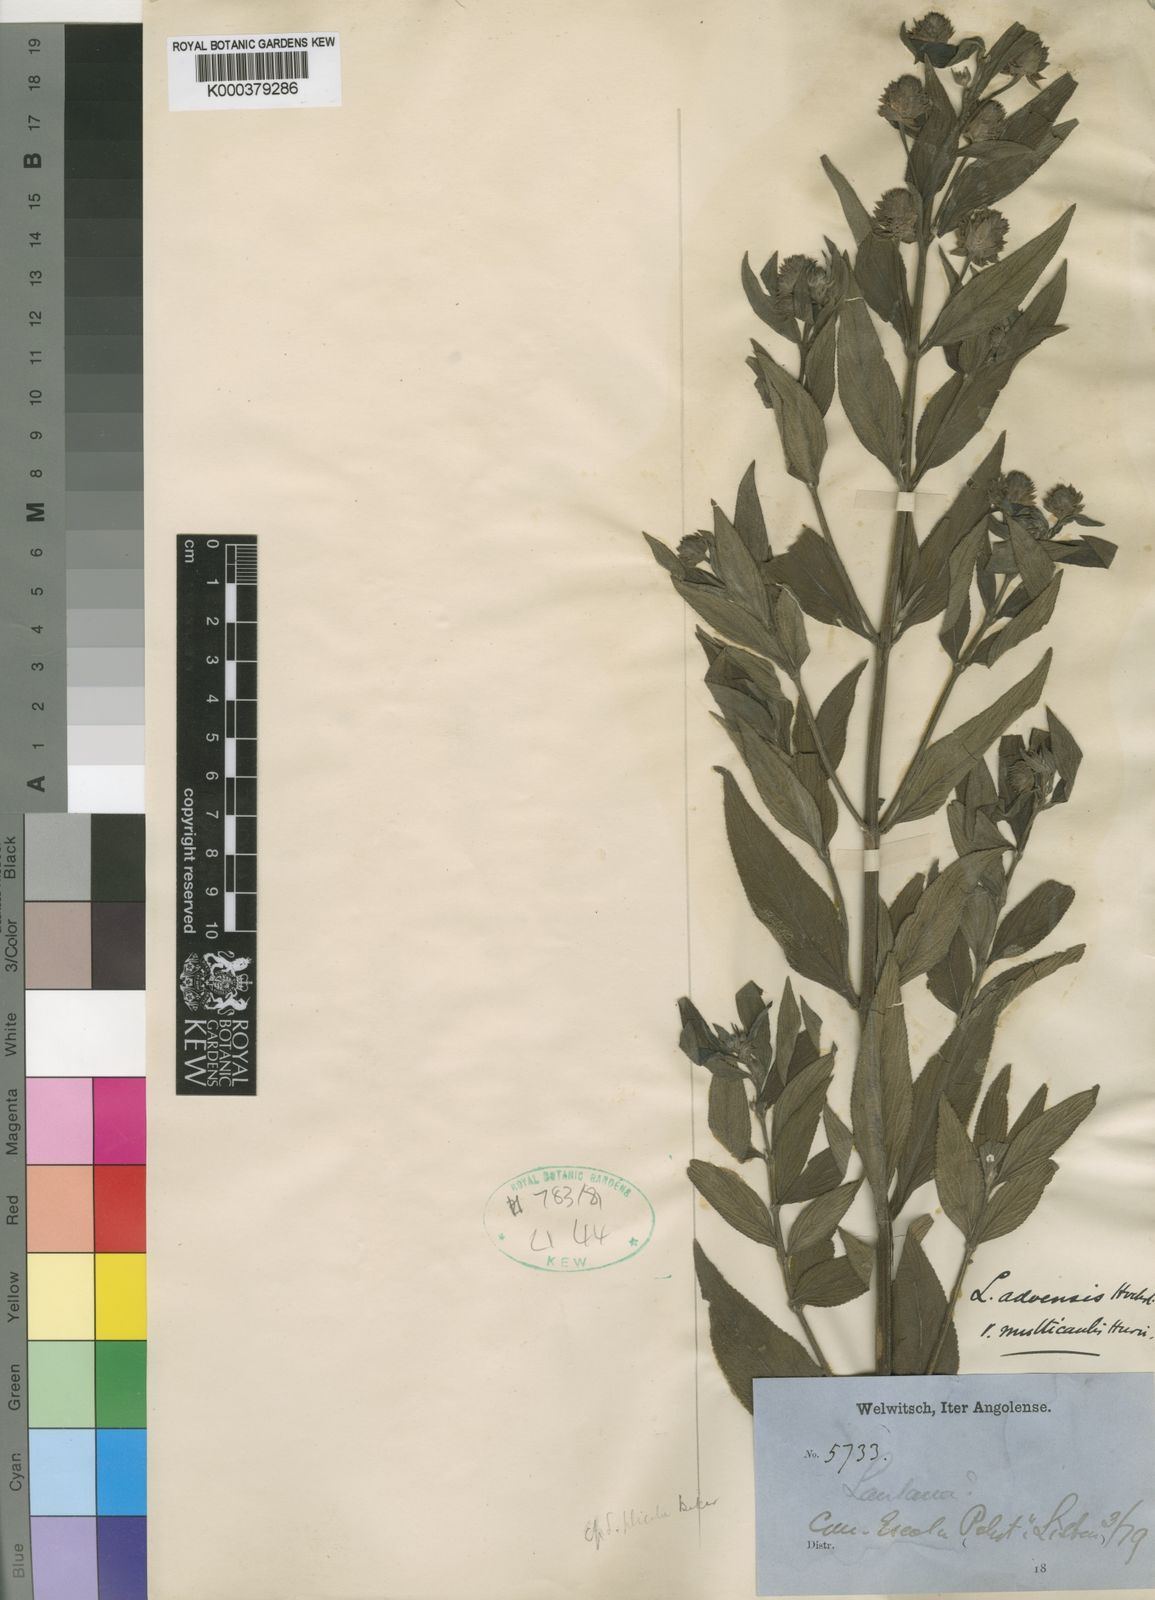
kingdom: Plantae
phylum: Tracheophyta
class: Magnoliopsida
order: Lamiales
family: Verbenaceae
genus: Lippia
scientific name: Lippia plicata
